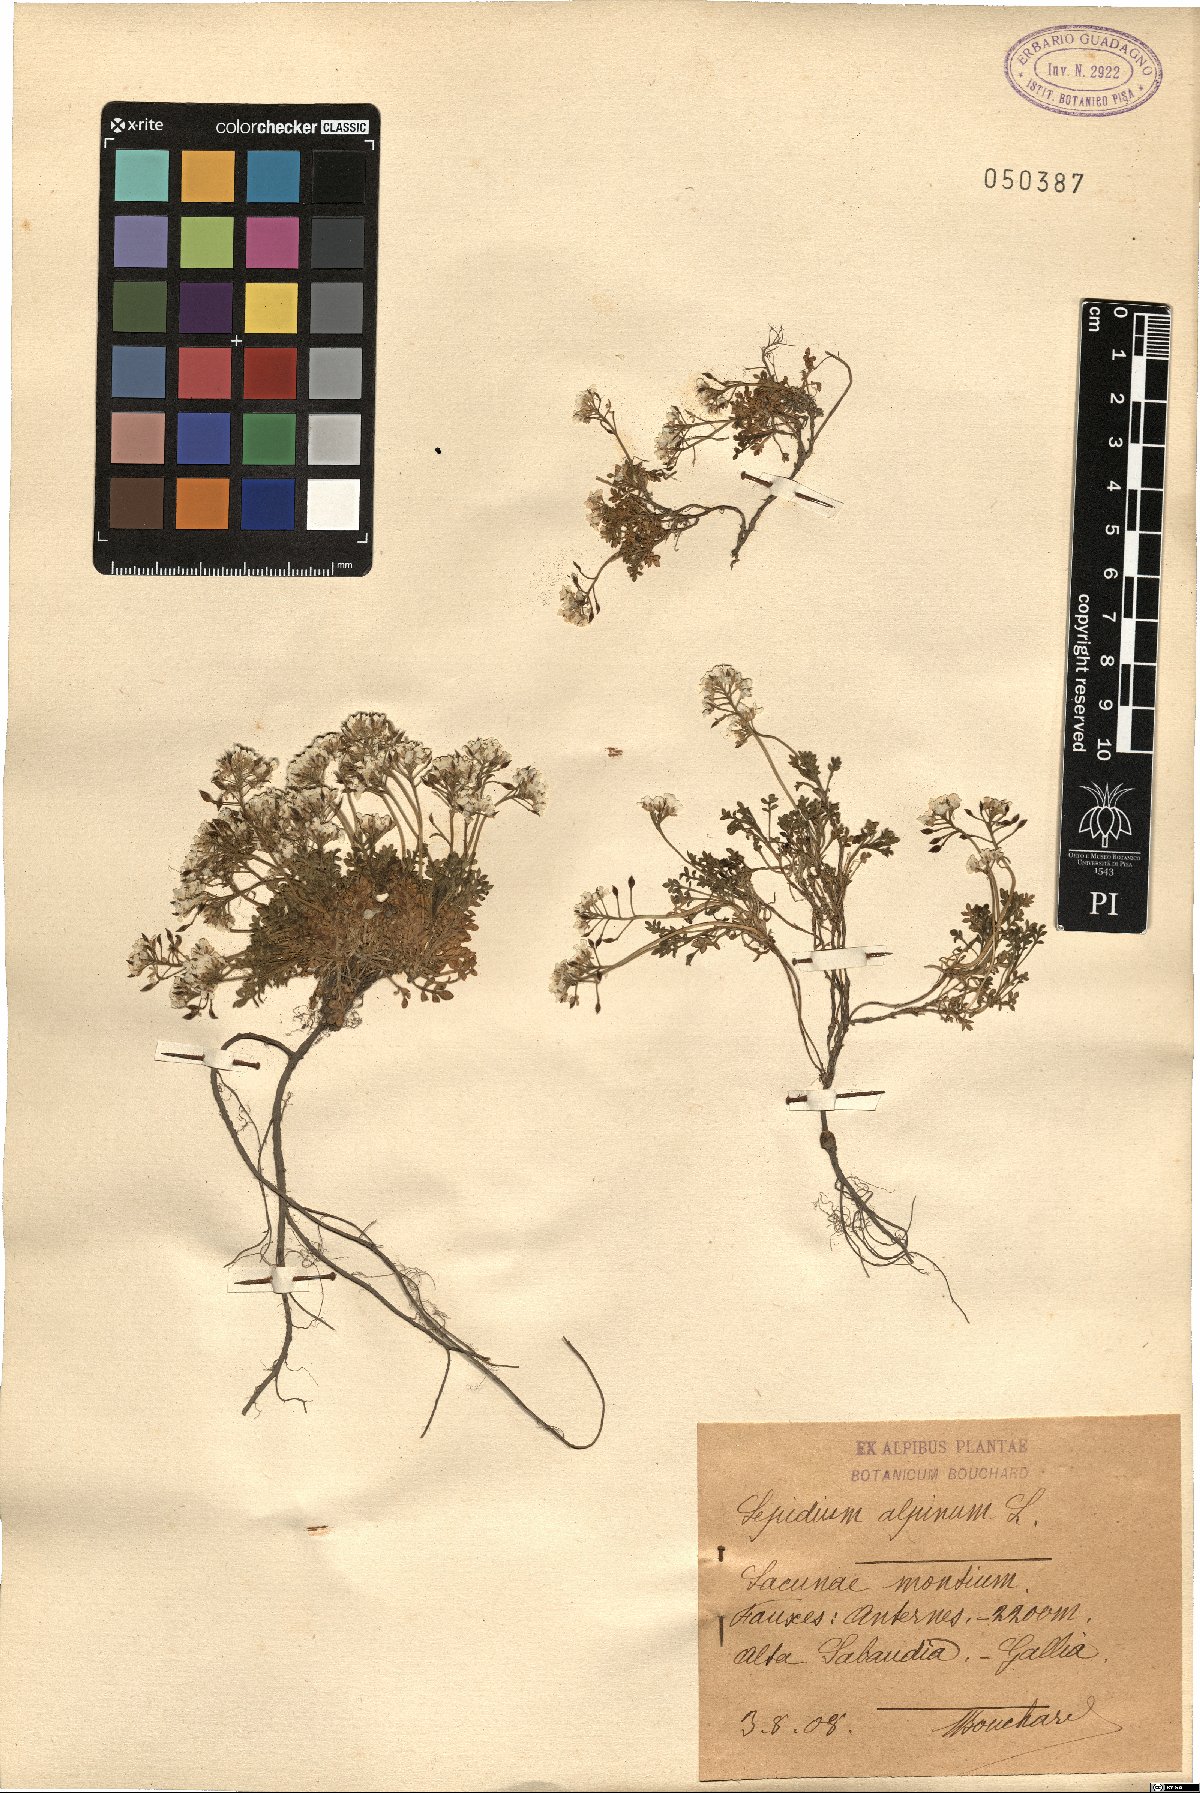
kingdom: Plantae
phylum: Tracheophyta
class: Magnoliopsida
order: Brassicales
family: Brassicaceae
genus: Hornungia
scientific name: Hornungia alpina
